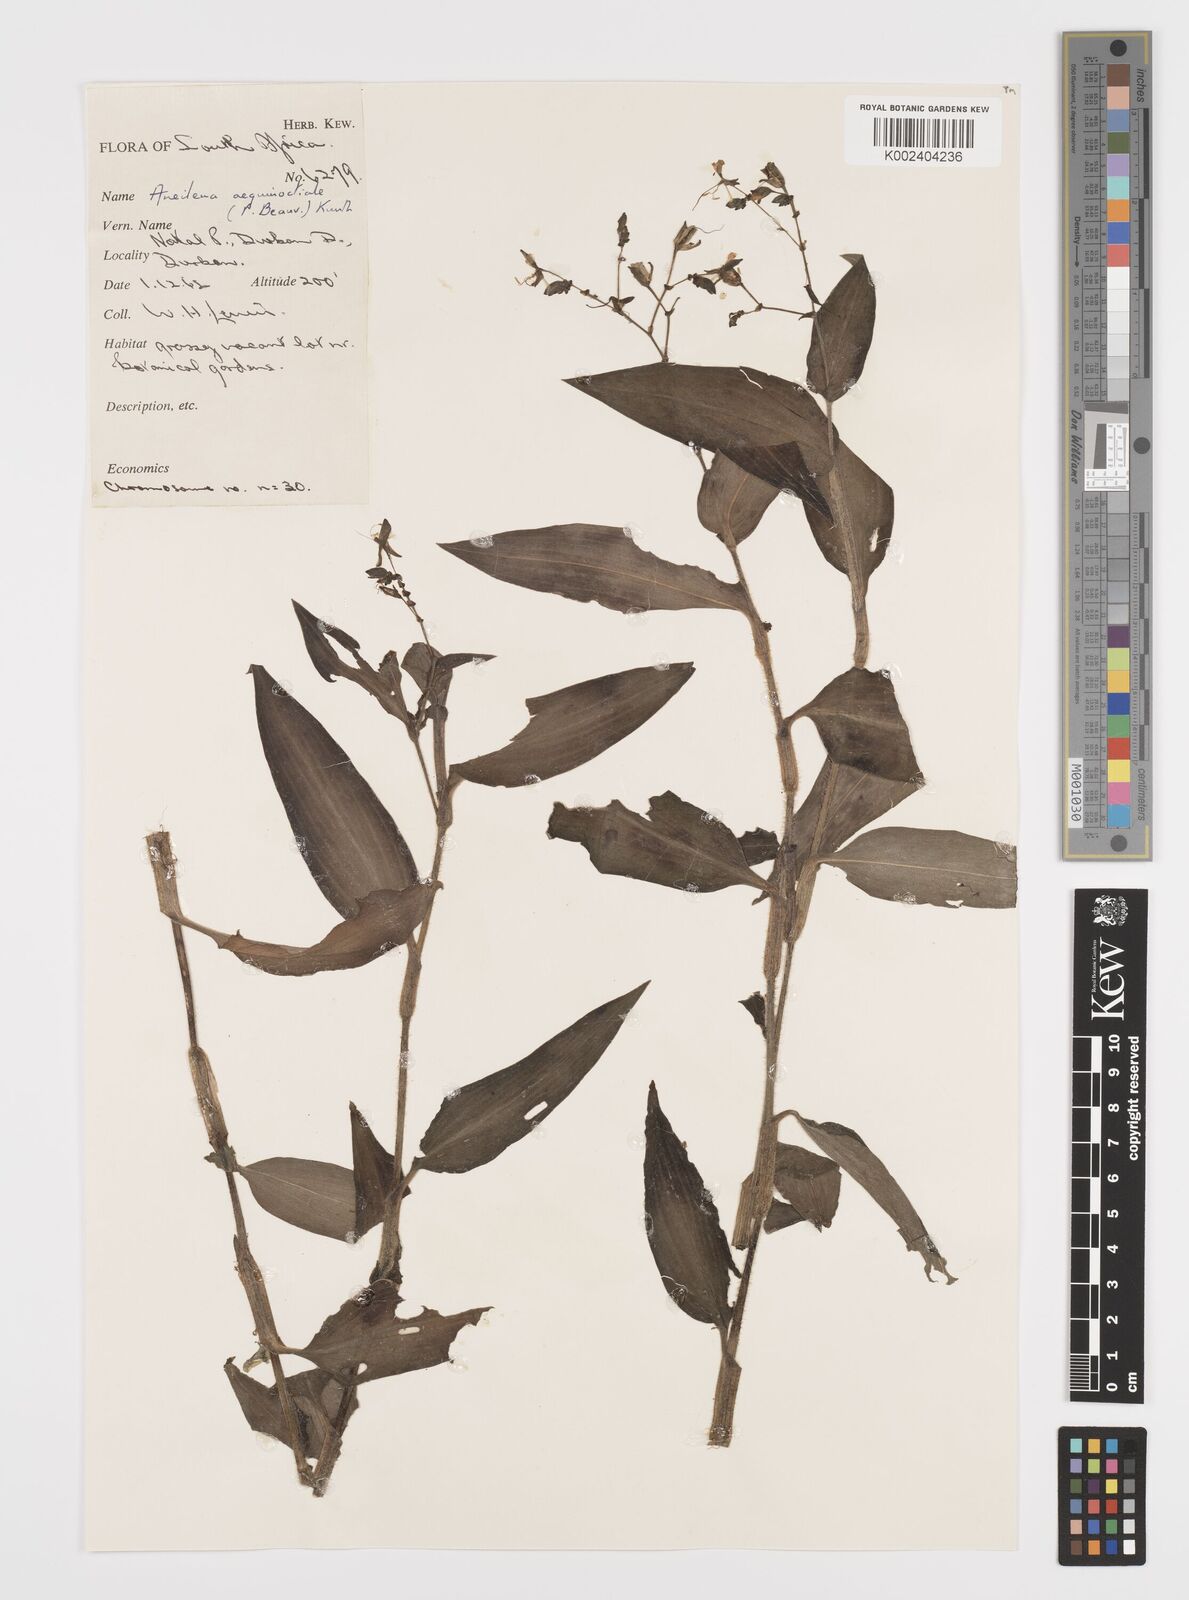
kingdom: Plantae
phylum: Tracheophyta
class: Liliopsida
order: Commelinales
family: Commelinaceae
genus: Aneilema
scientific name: Aneilema aequinoctiale
